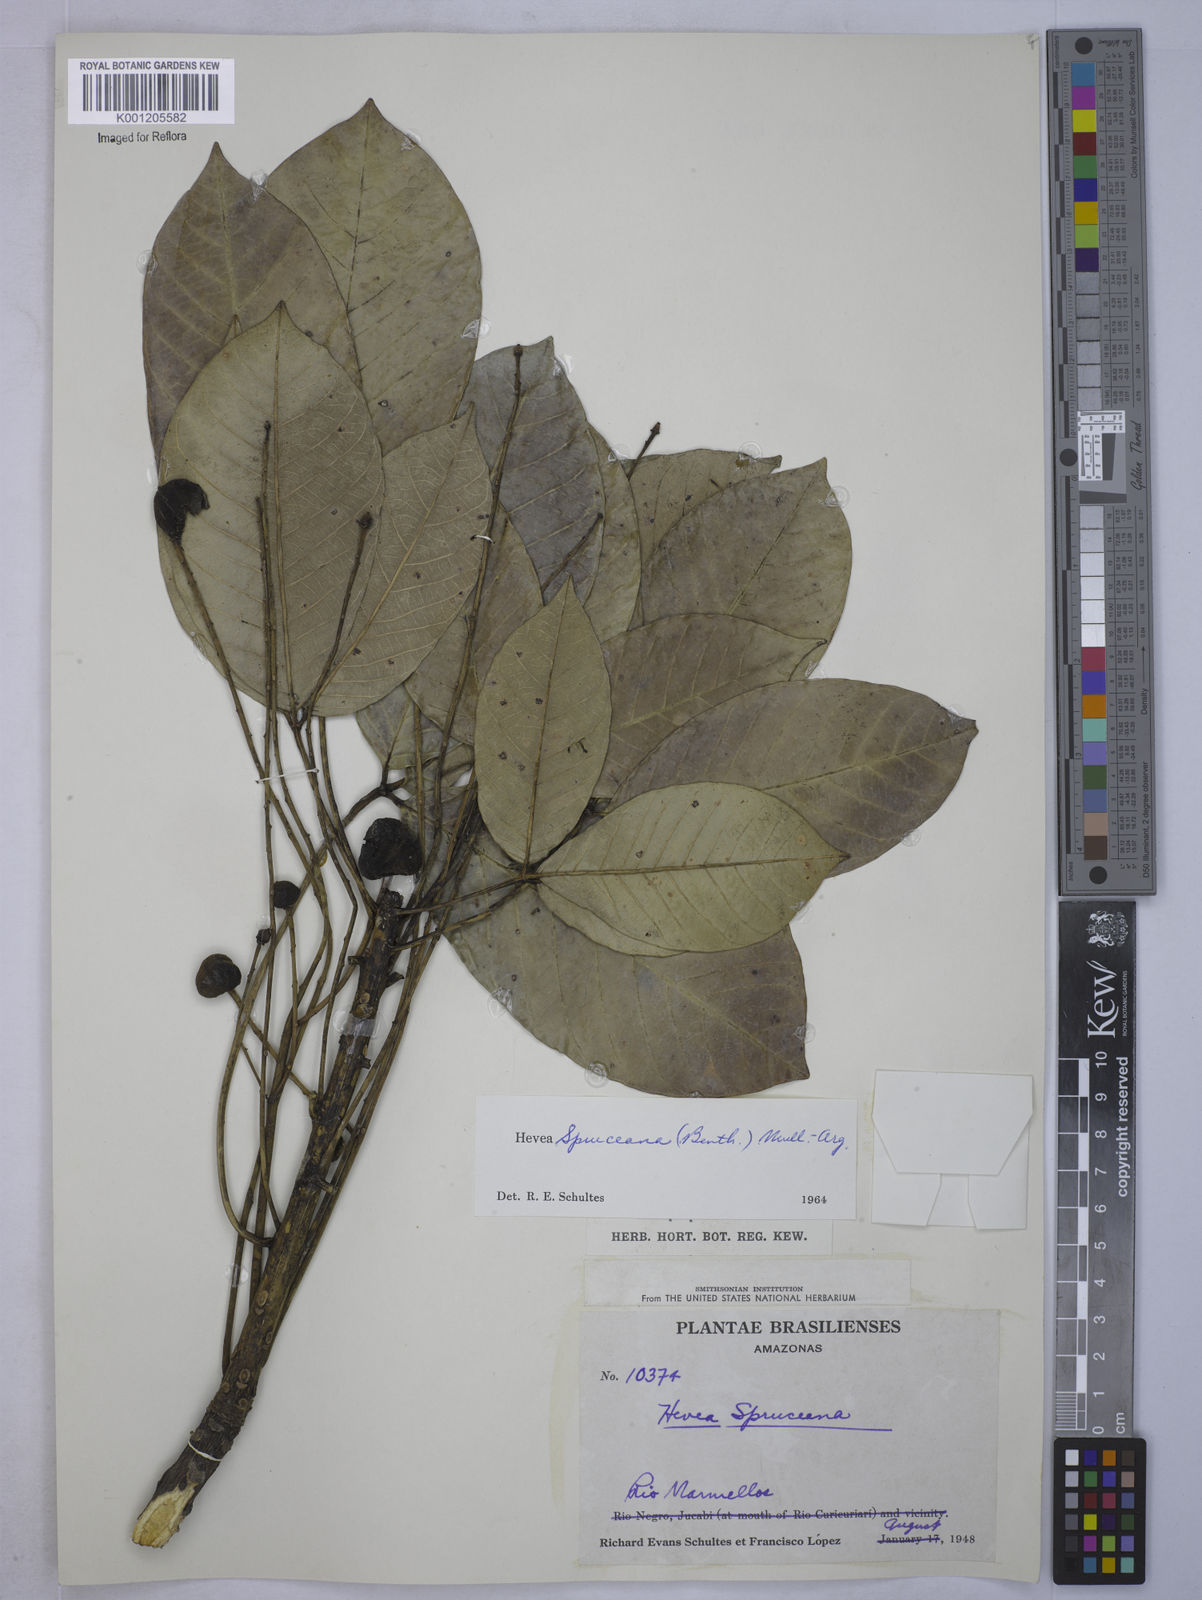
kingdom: Plantae
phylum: Tracheophyta
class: Magnoliopsida
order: Malpighiales
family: Euphorbiaceae
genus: Hevea
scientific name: Hevea
